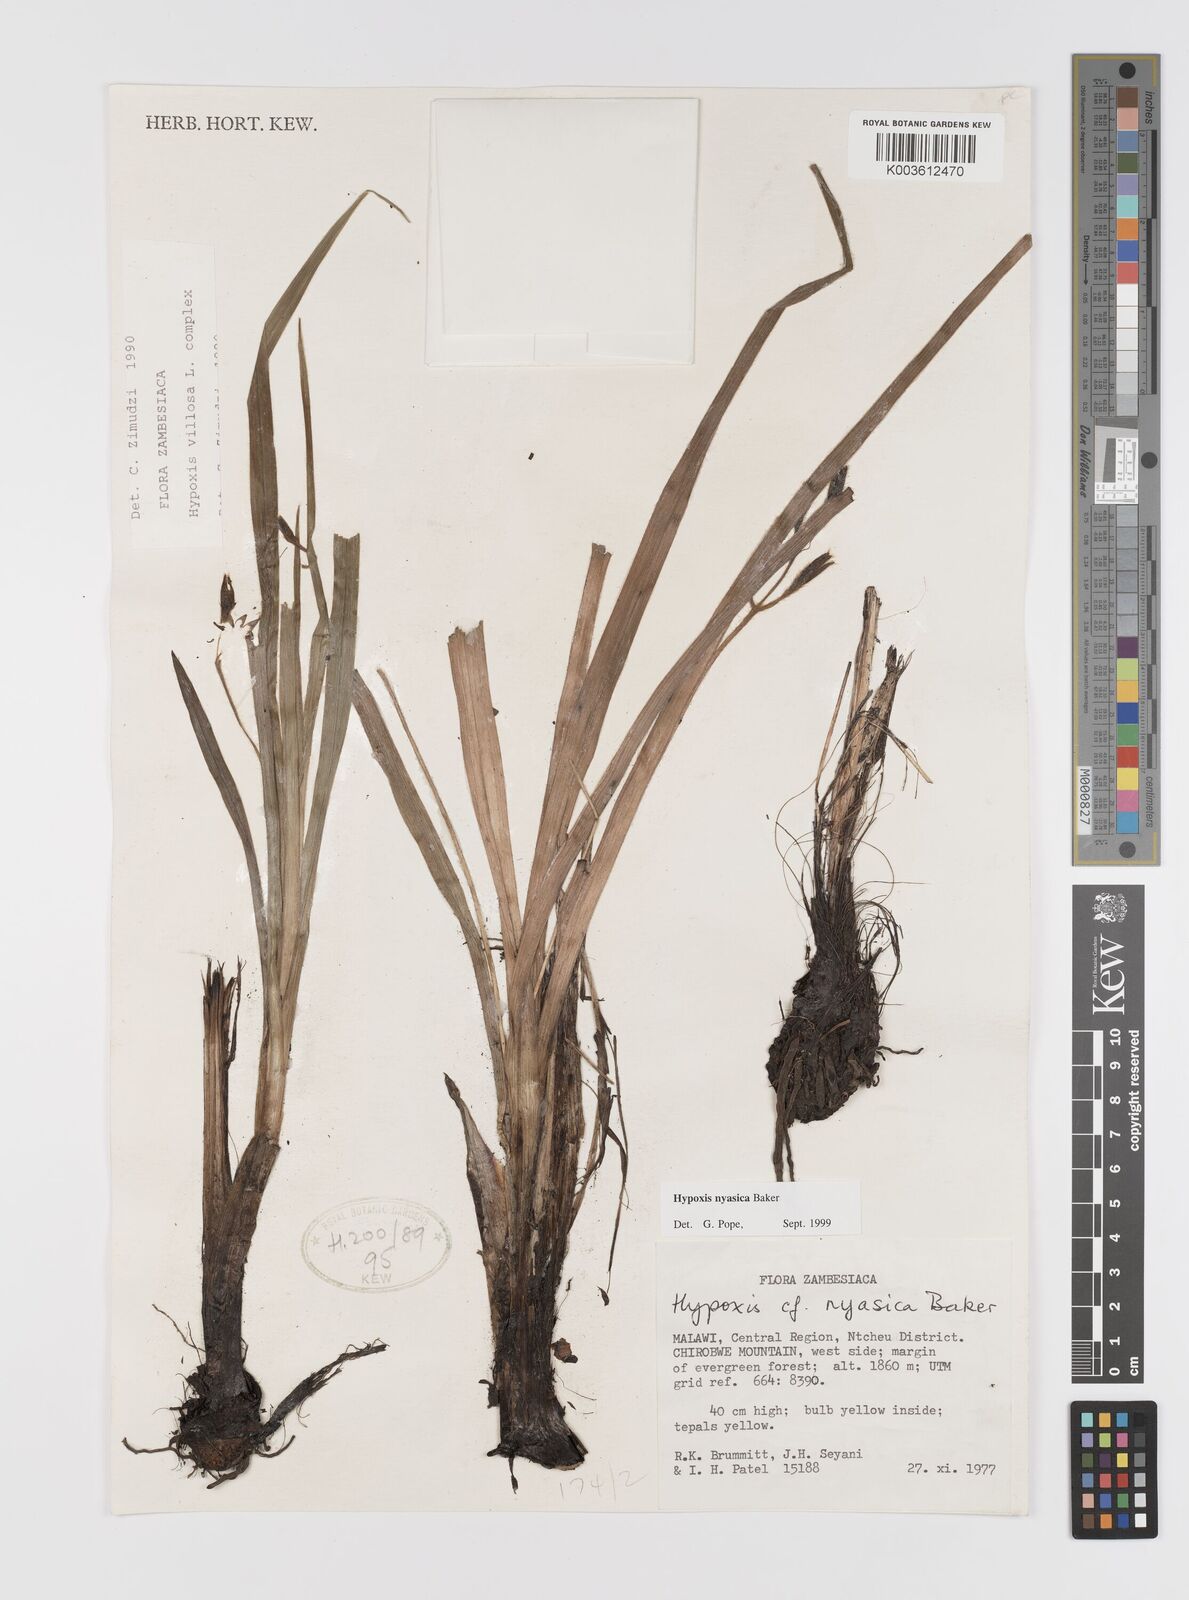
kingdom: Plantae
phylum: Tracheophyta
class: Liliopsida
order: Asparagales
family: Hypoxidaceae
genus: Hypoxis
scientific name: Hypoxis nyasica
